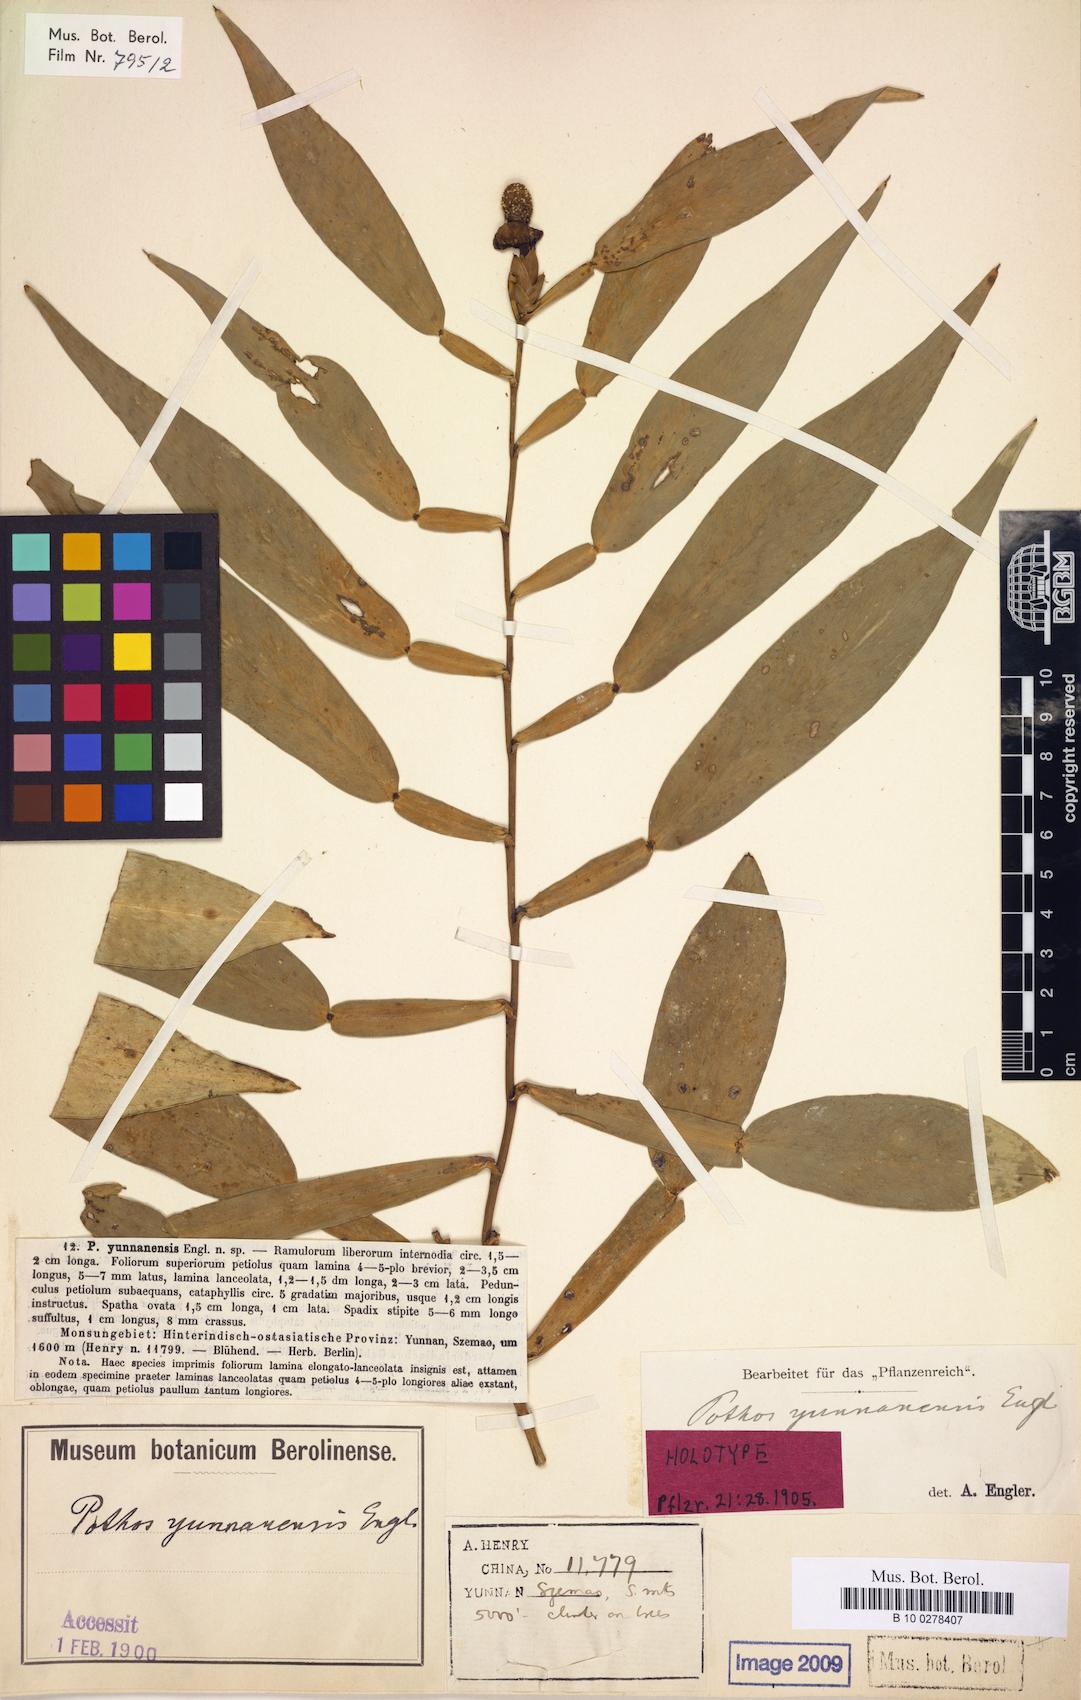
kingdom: Plantae
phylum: Tracheophyta
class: Liliopsida
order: Alismatales
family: Araceae
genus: Pothos
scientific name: Pothos chinensis
